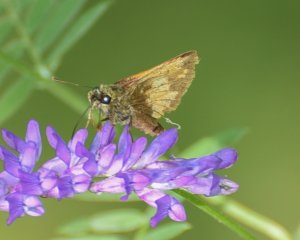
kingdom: Animalia
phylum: Arthropoda
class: Insecta
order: Lepidoptera
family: Hesperiidae
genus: Lon
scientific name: Lon hobomok
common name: Hobomok Skipper
